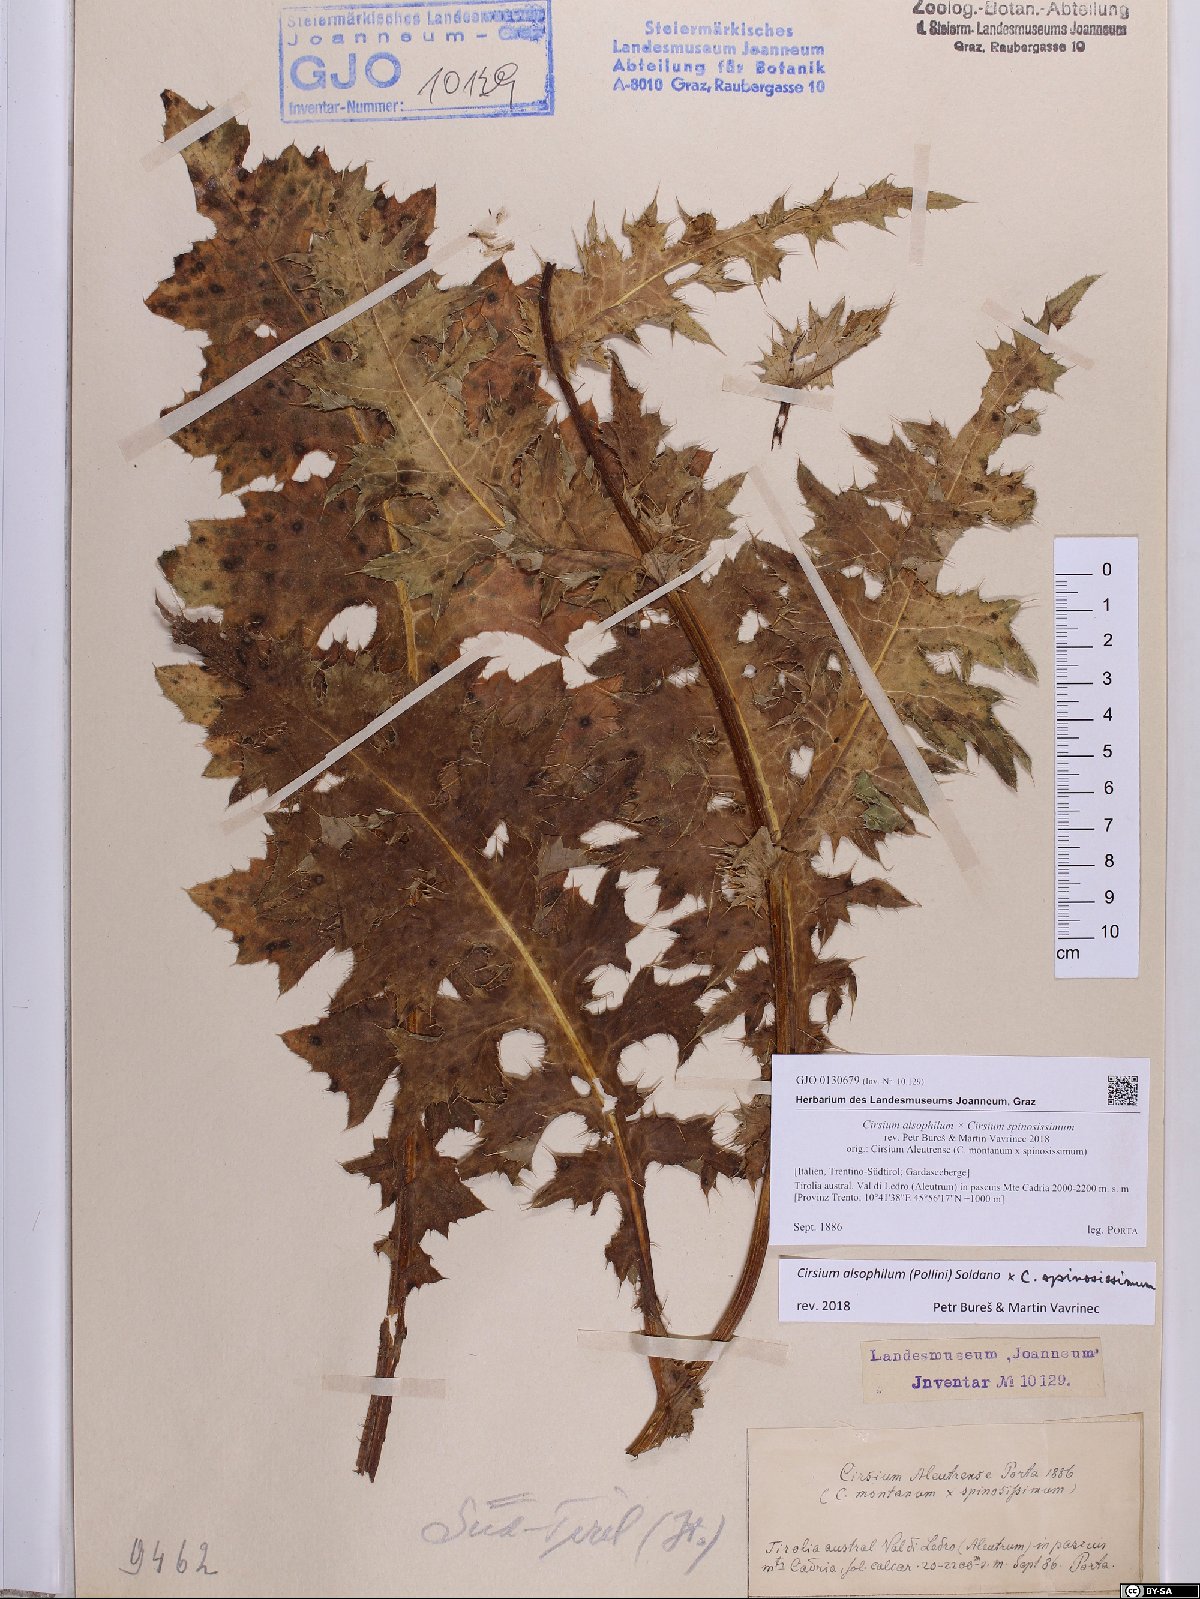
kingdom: Plantae
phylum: Tracheophyta
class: Magnoliopsida
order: Asterales
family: Asteraceae
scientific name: Asteraceae
